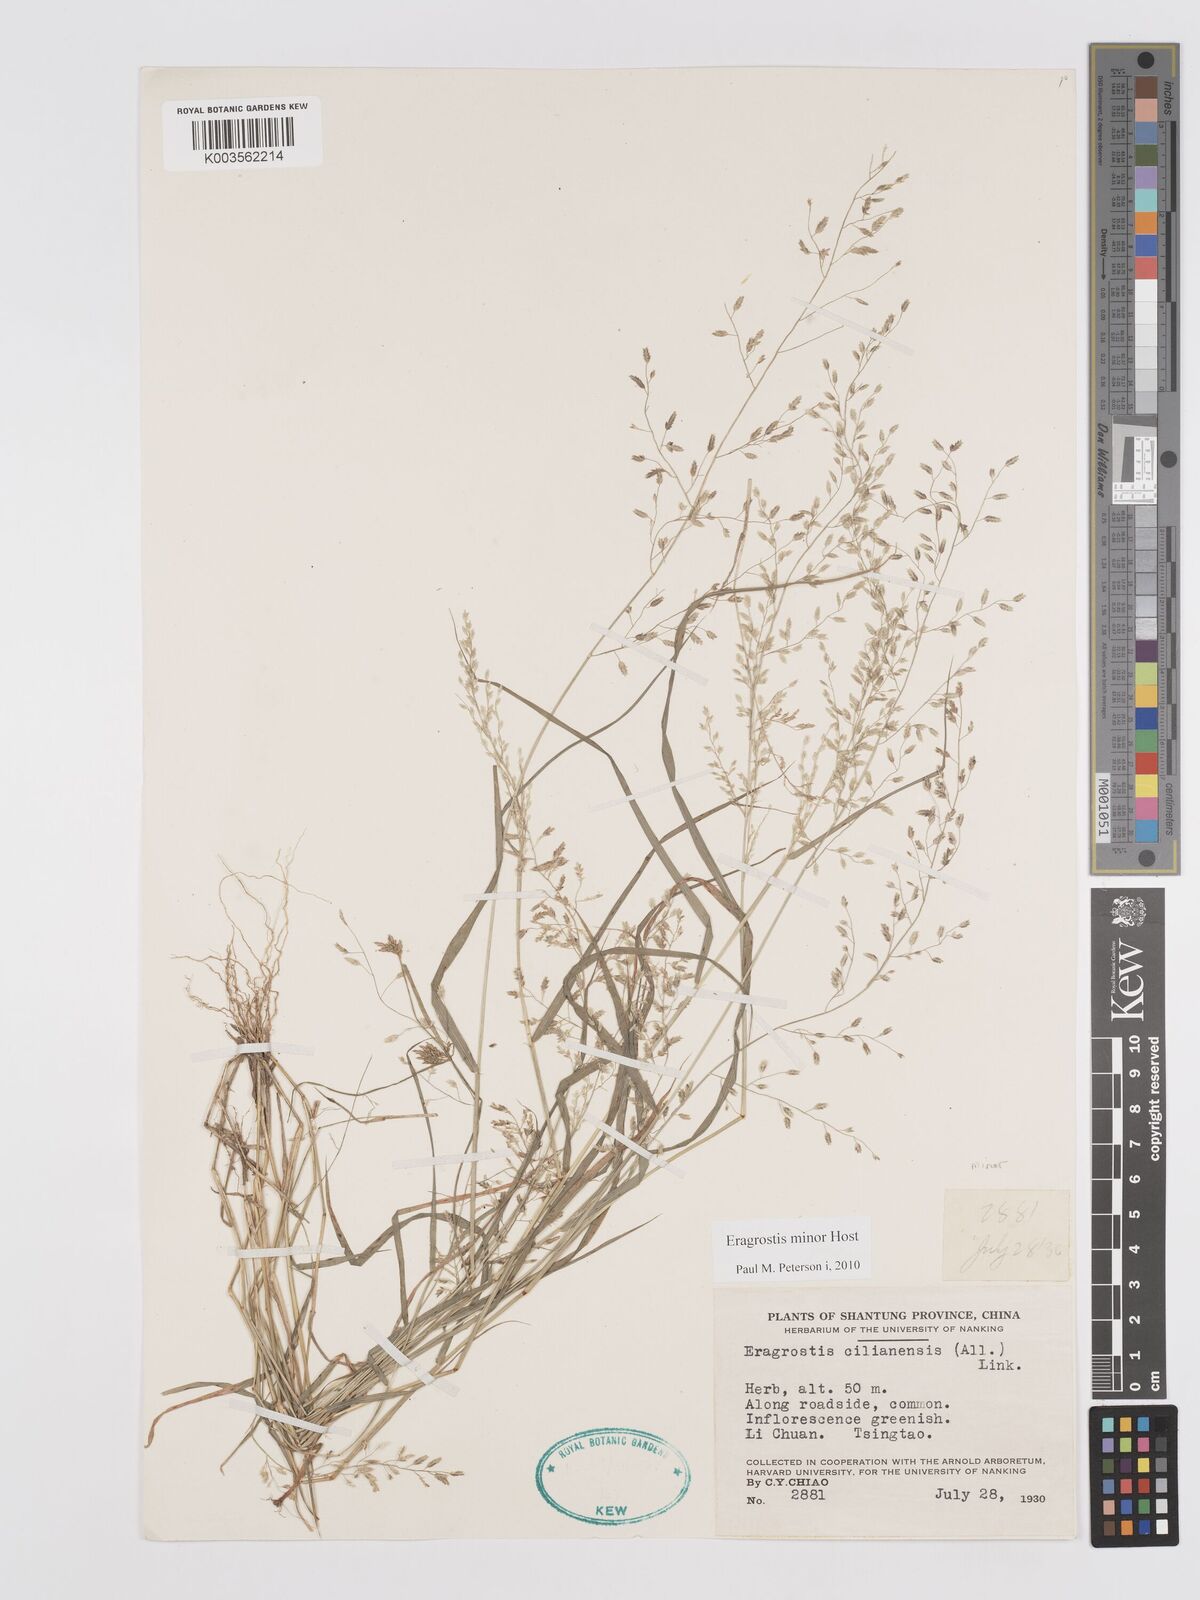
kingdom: Plantae
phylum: Tracheophyta
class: Liliopsida
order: Poales
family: Poaceae
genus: Eragrostis
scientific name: Eragrostis minor
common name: Small love-grass
